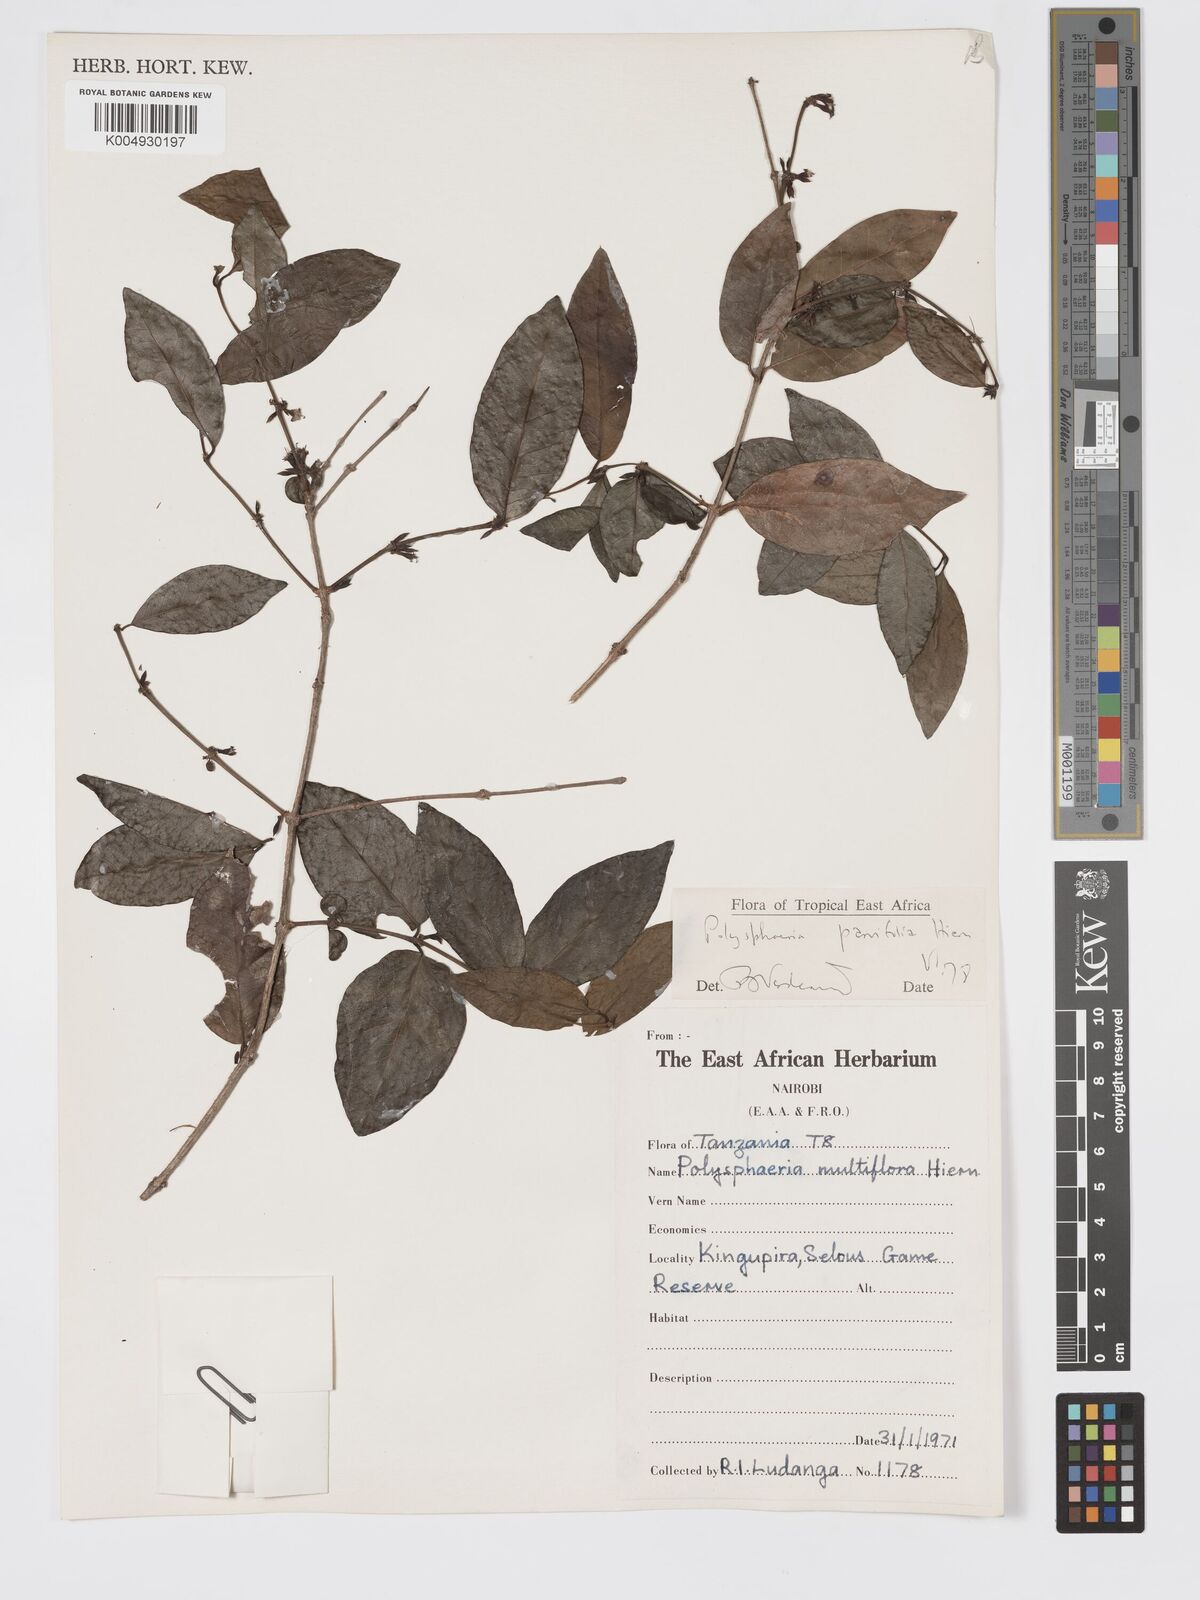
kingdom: Plantae
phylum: Tracheophyta
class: Magnoliopsida
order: Gentianales
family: Rubiaceae
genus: Polysphaeria
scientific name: Polysphaeria parvifolia
